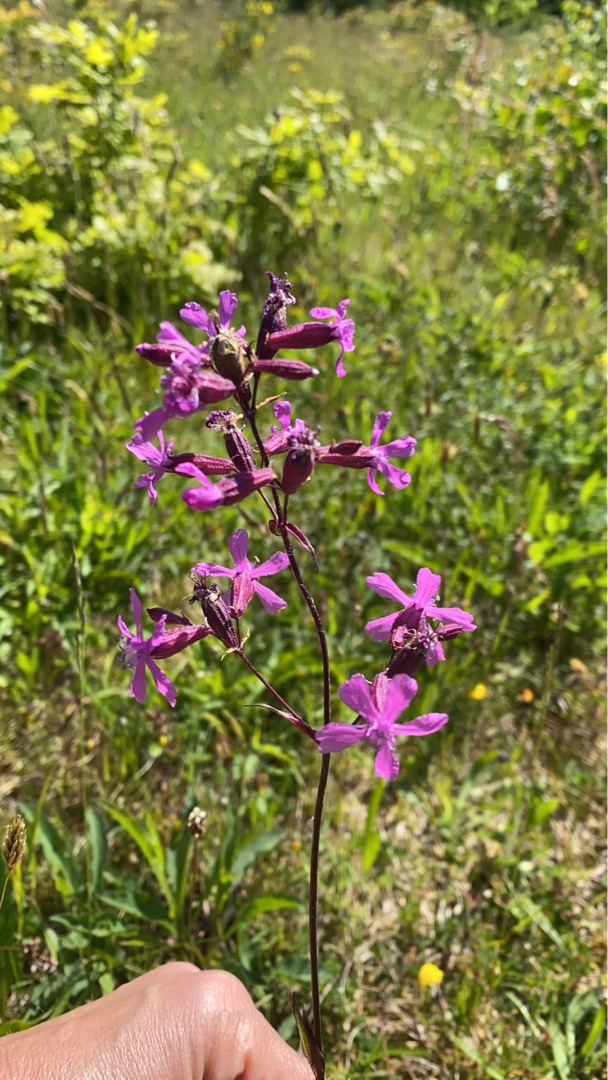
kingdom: Plantae
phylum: Tracheophyta
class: Magnoliopsida
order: Caryophyllales
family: Caryophyllaceae
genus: Viscaria
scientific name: Viscaria vulgaris
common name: Tjærenellike
